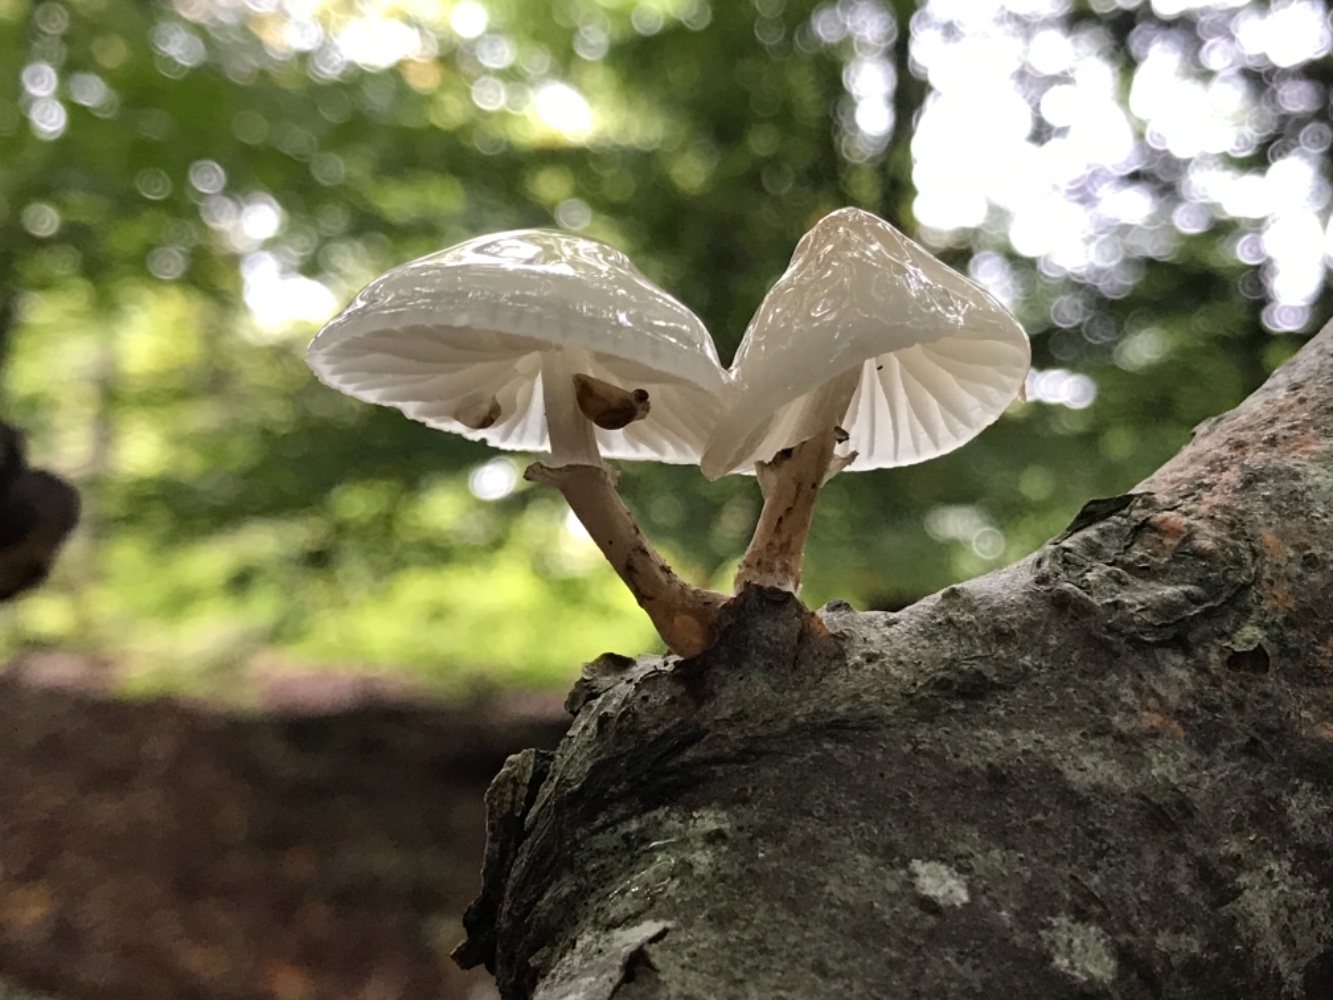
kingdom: Fungi
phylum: Basidiomycota
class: Agaricomycetes
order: Agaricales
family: Physalacriaceae
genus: Mucidula
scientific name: Mucidula mucida
